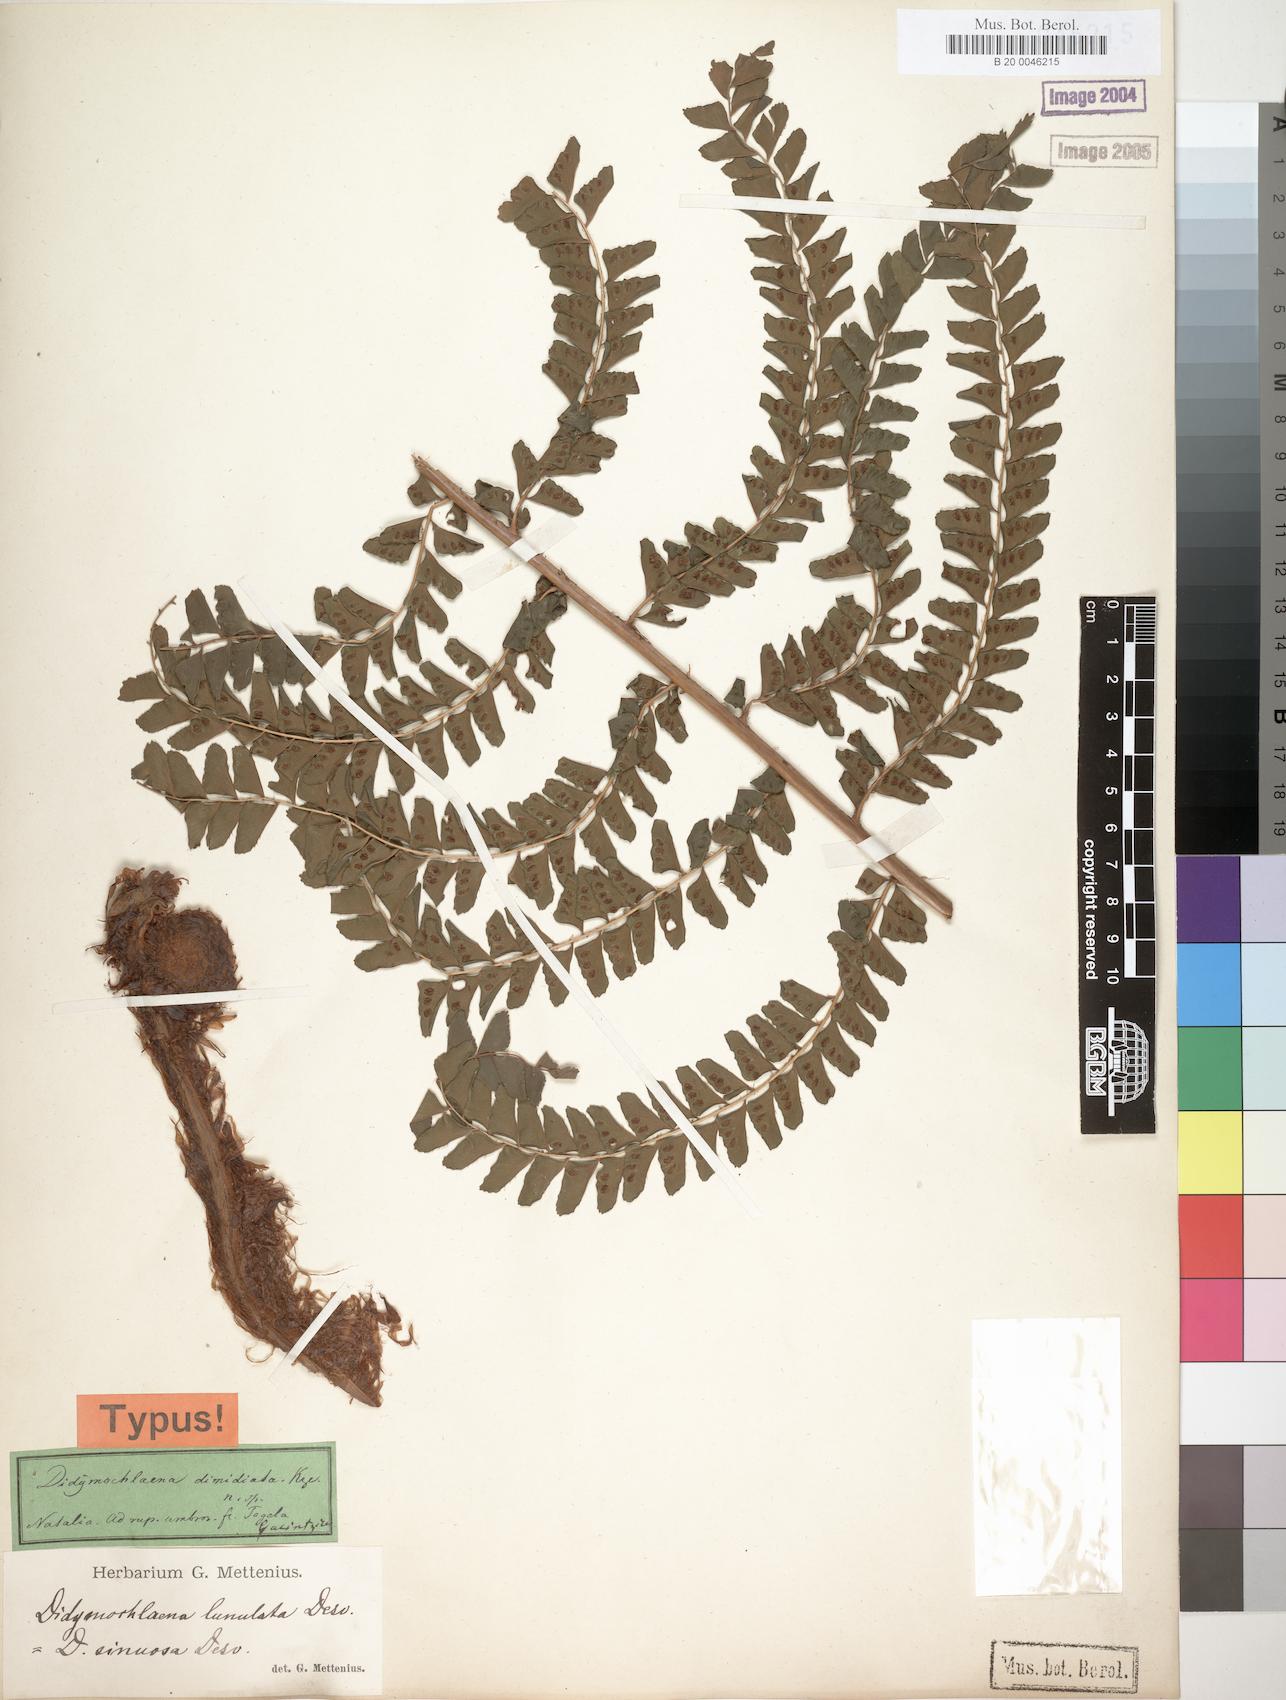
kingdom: Plantae
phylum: Tracheophyta
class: Polypodiopsida
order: Polypodiales
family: Didymochlaenaceae
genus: Didymochlaena
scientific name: Didymochlaena truncatula
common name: Mahogany fern
